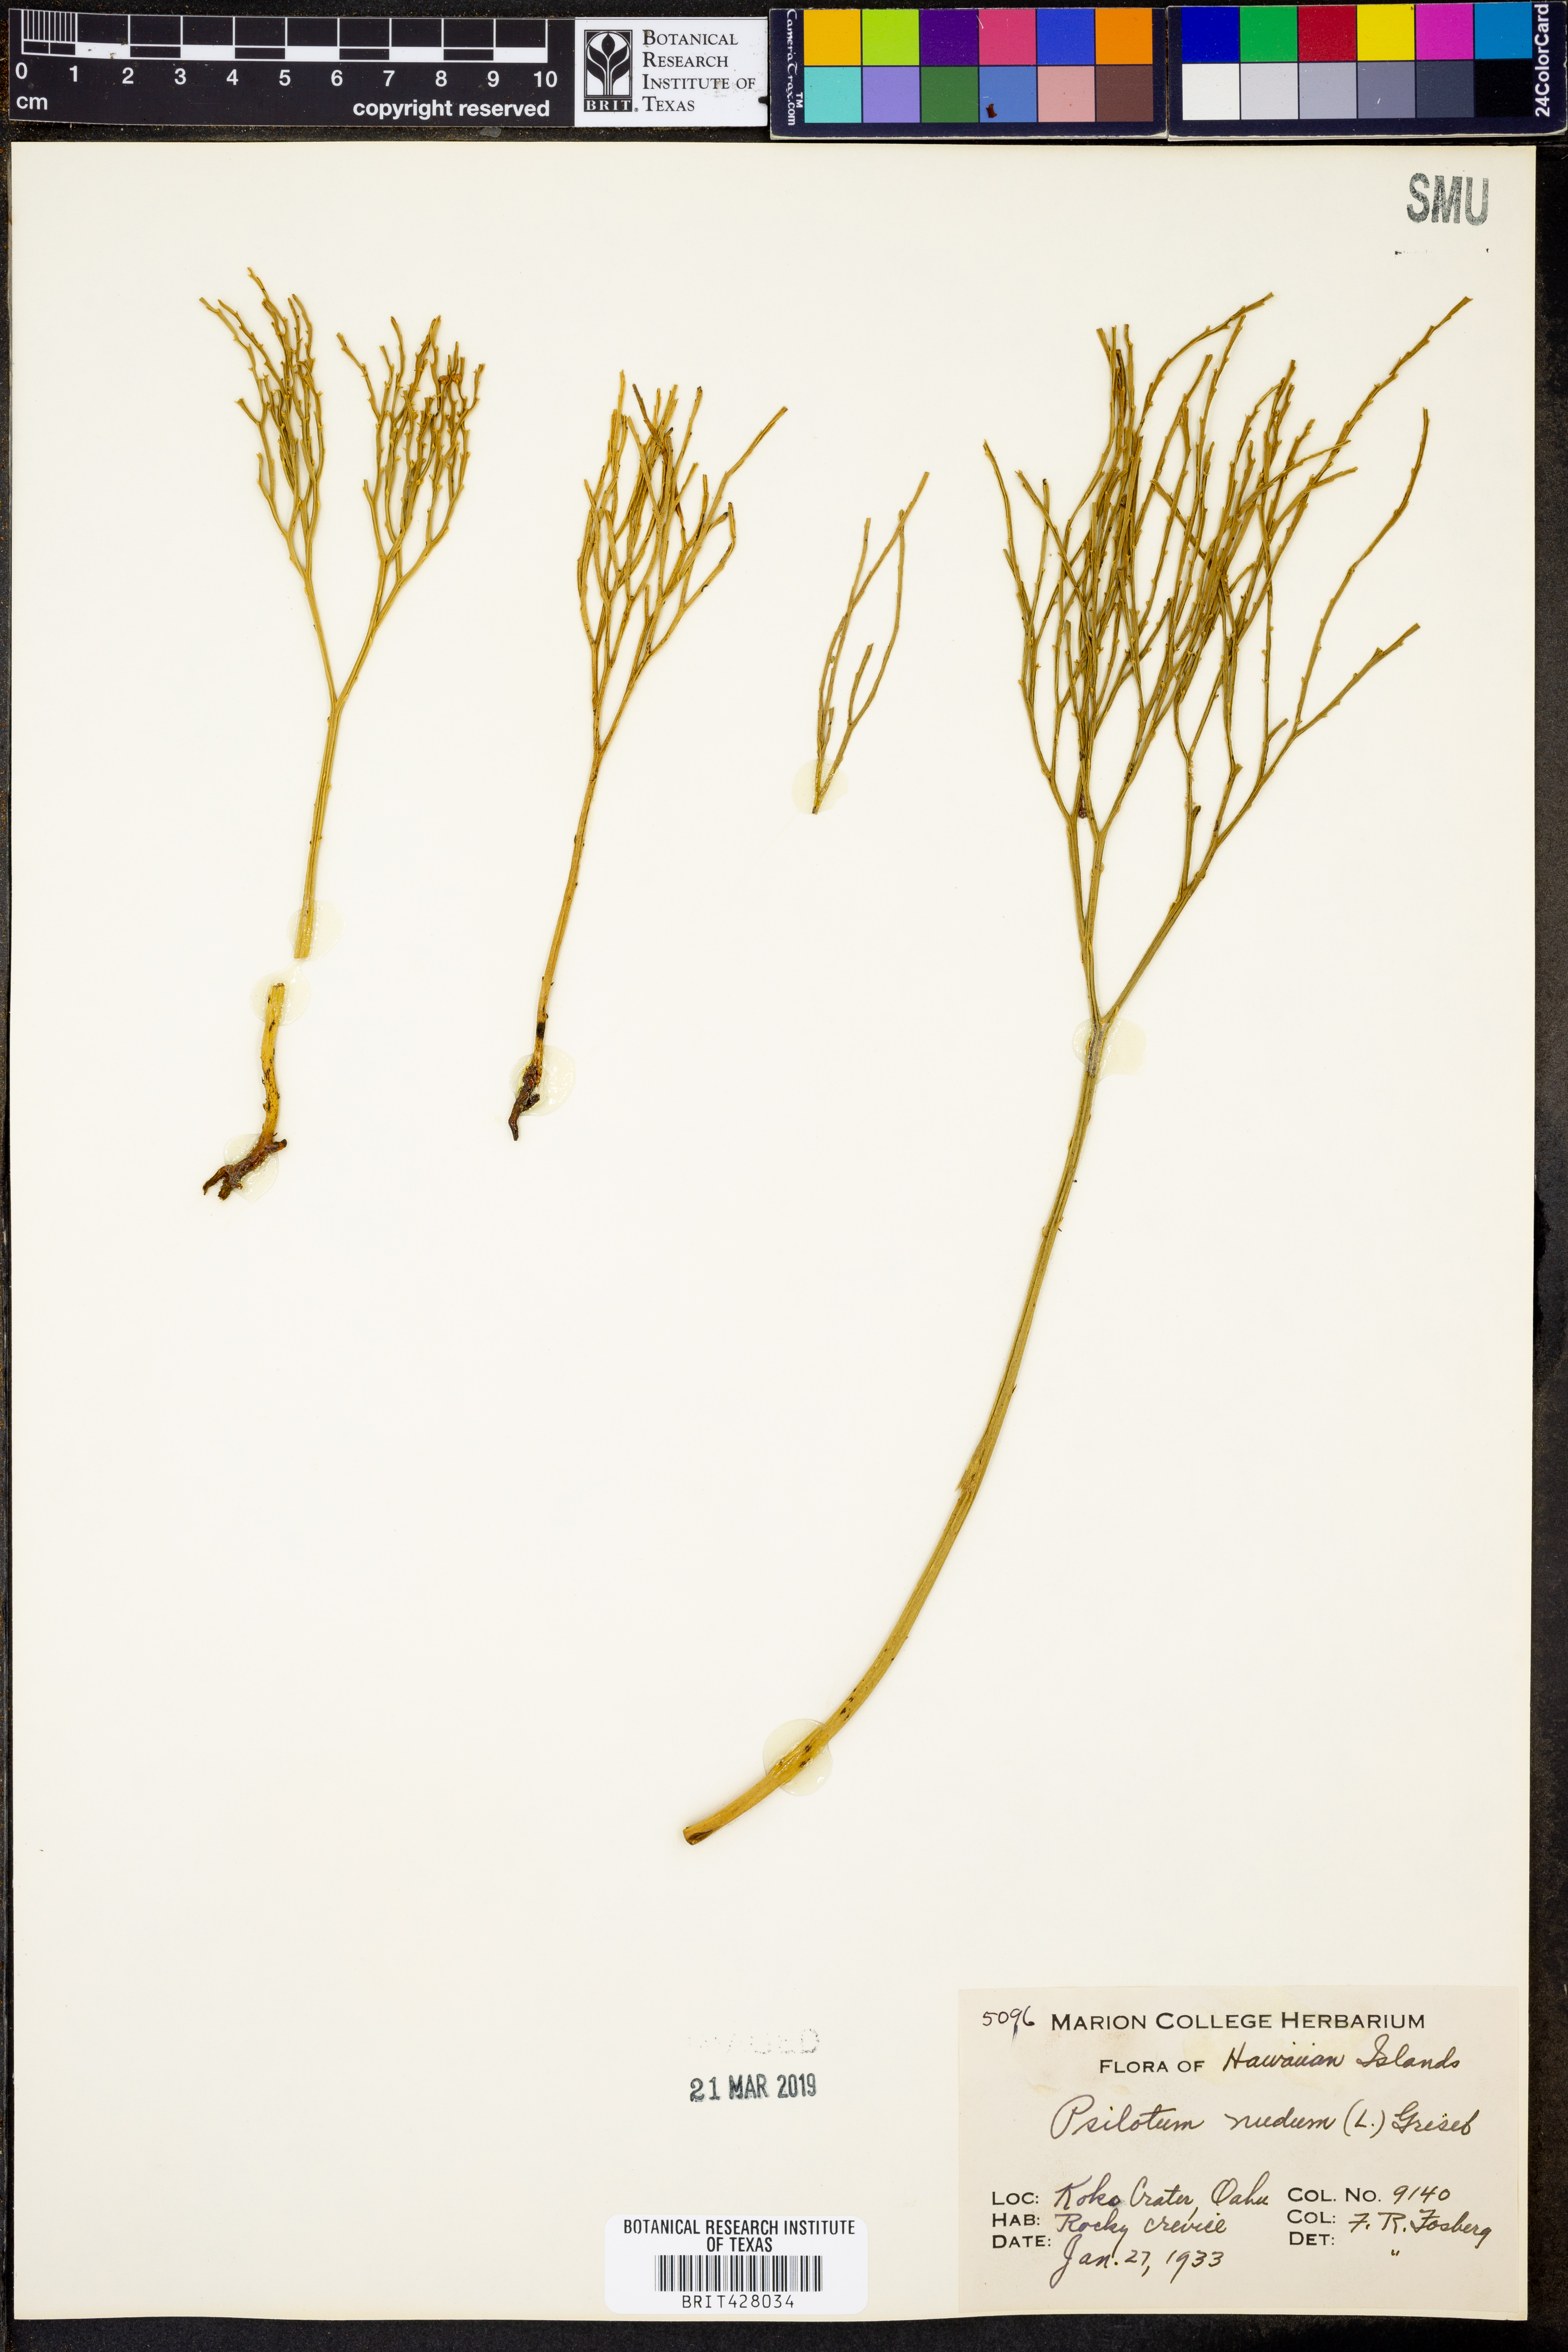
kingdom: Plantae
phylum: Tracheophyta
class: Polypodiopsida
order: Psilotales
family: Psilotaceae
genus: Psilotum
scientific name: Psilotum nudum
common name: Skeleton fork fern
